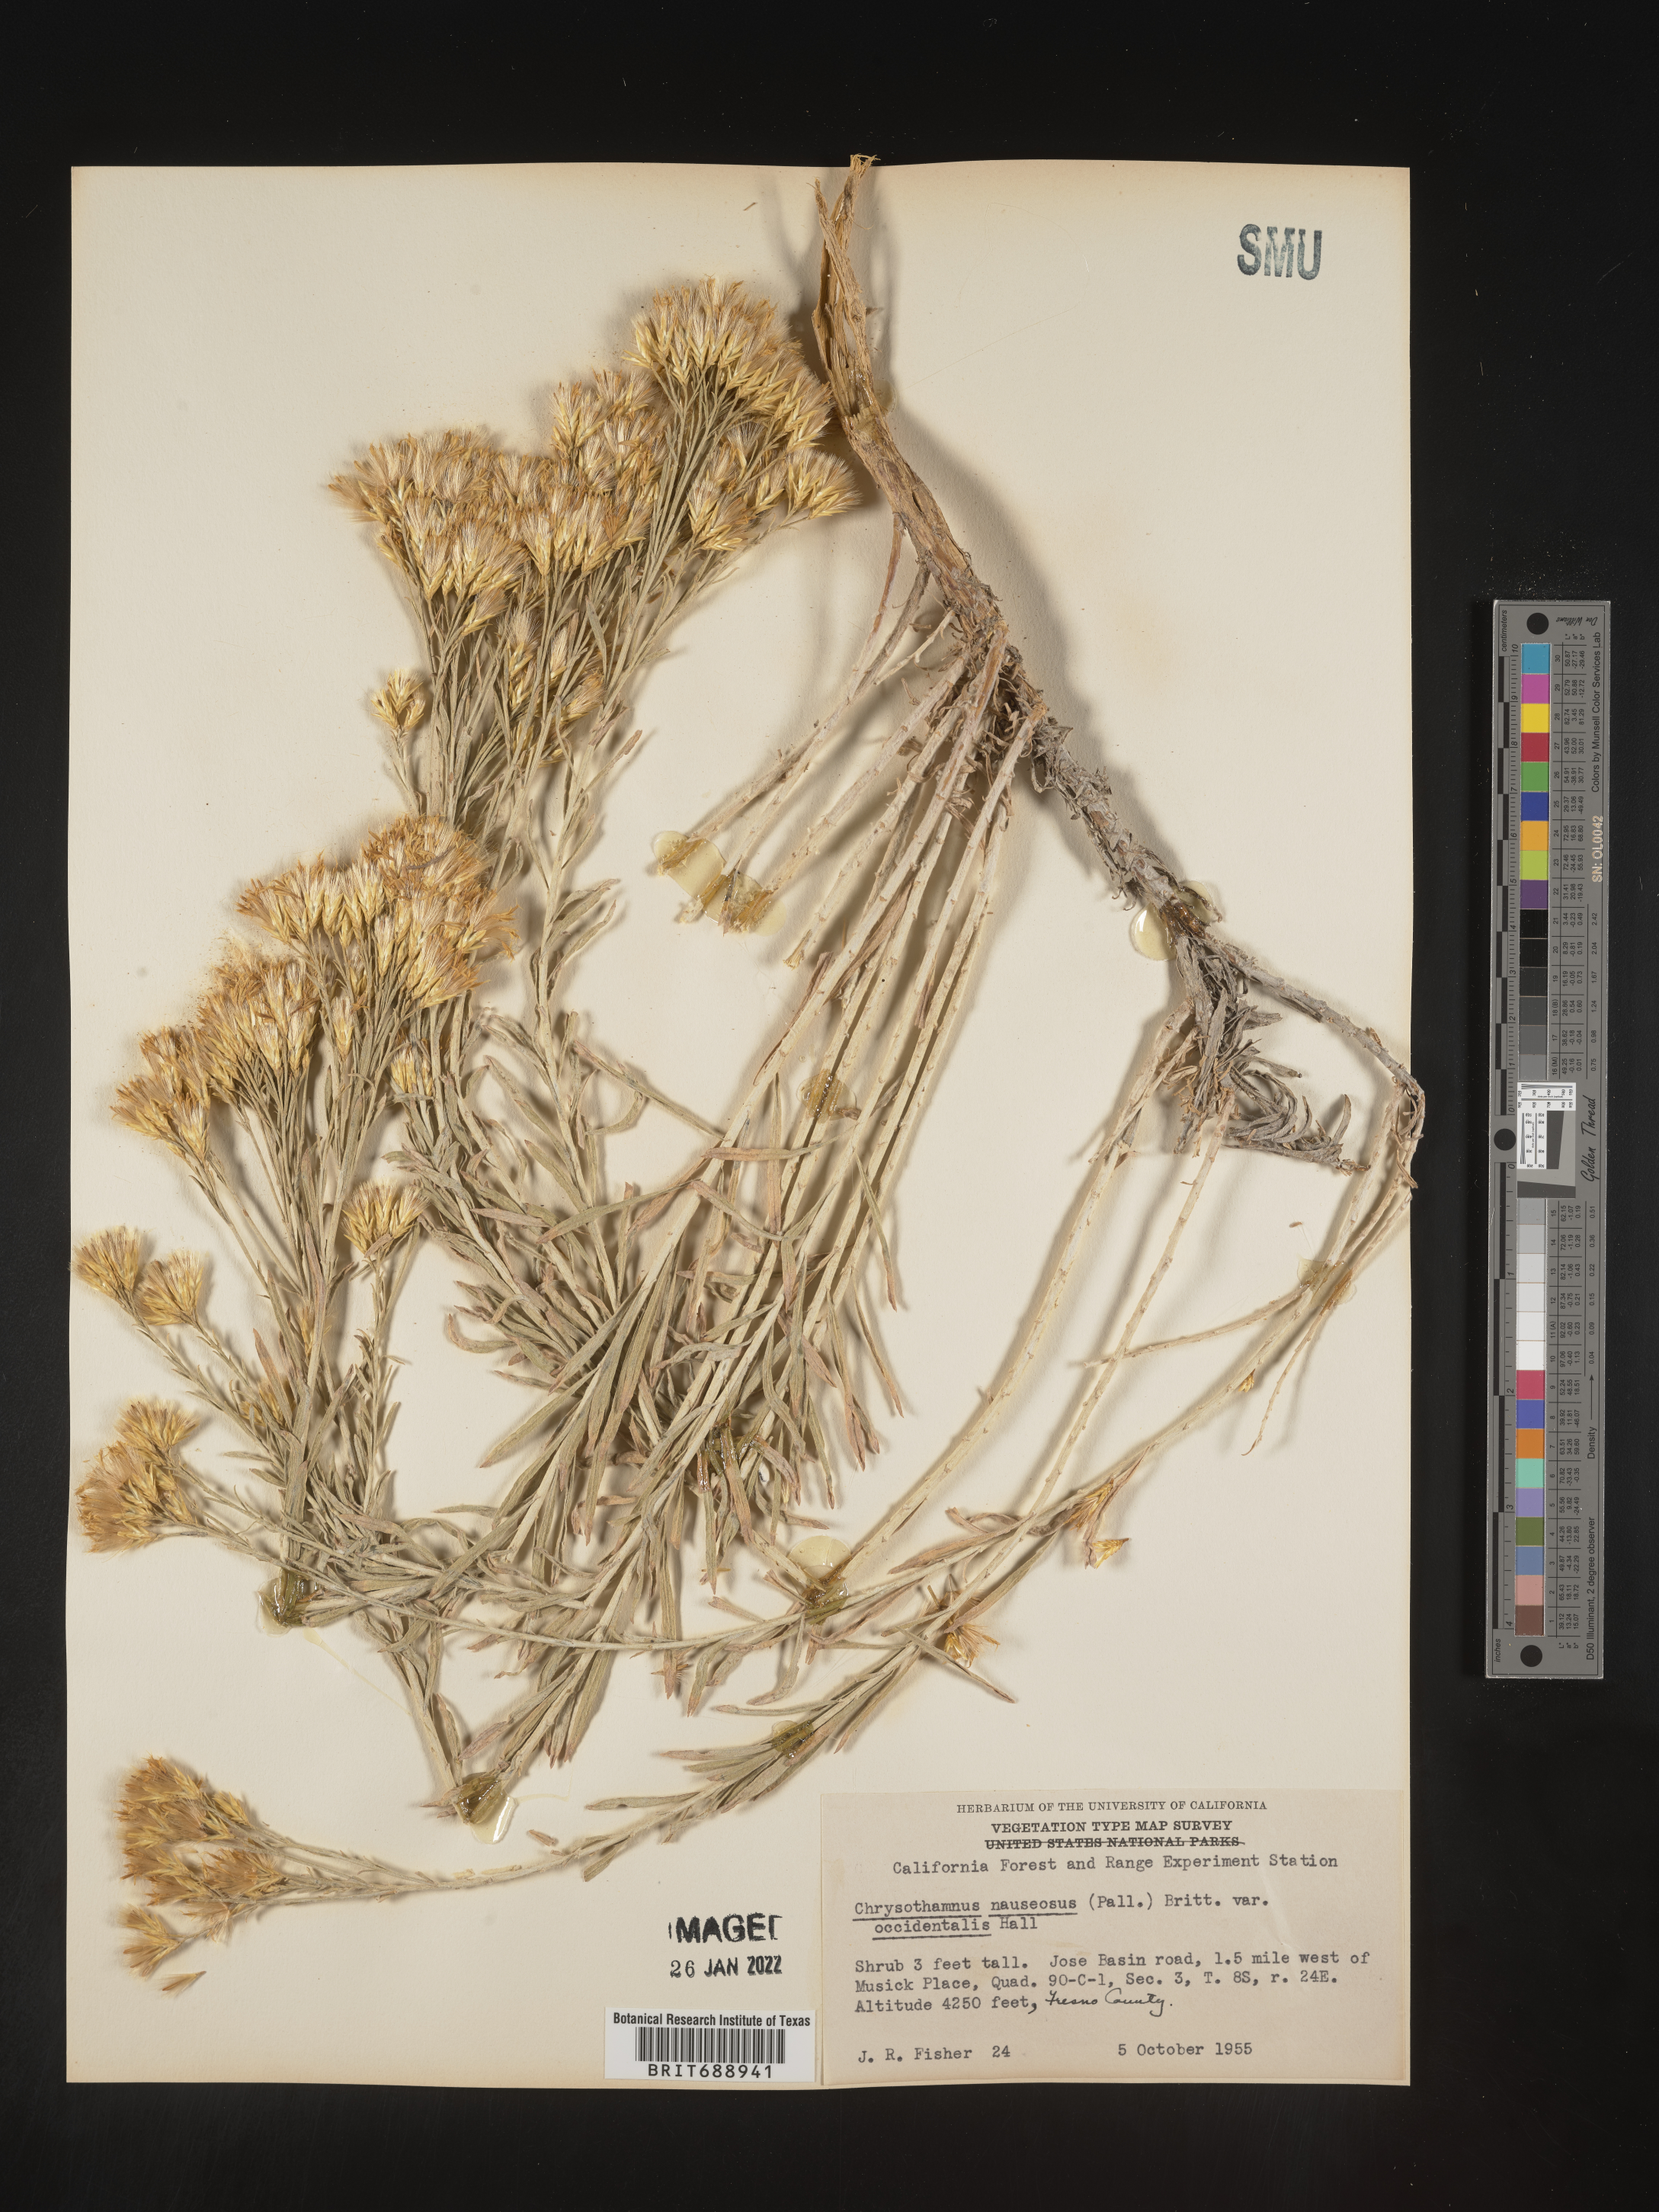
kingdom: Plantae
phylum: Tracheophyta
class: Magnoliopsida
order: Asterales
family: Asteraceae
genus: Ericameria
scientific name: Ericameria nauseosa
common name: Rubber rabbitbrush
